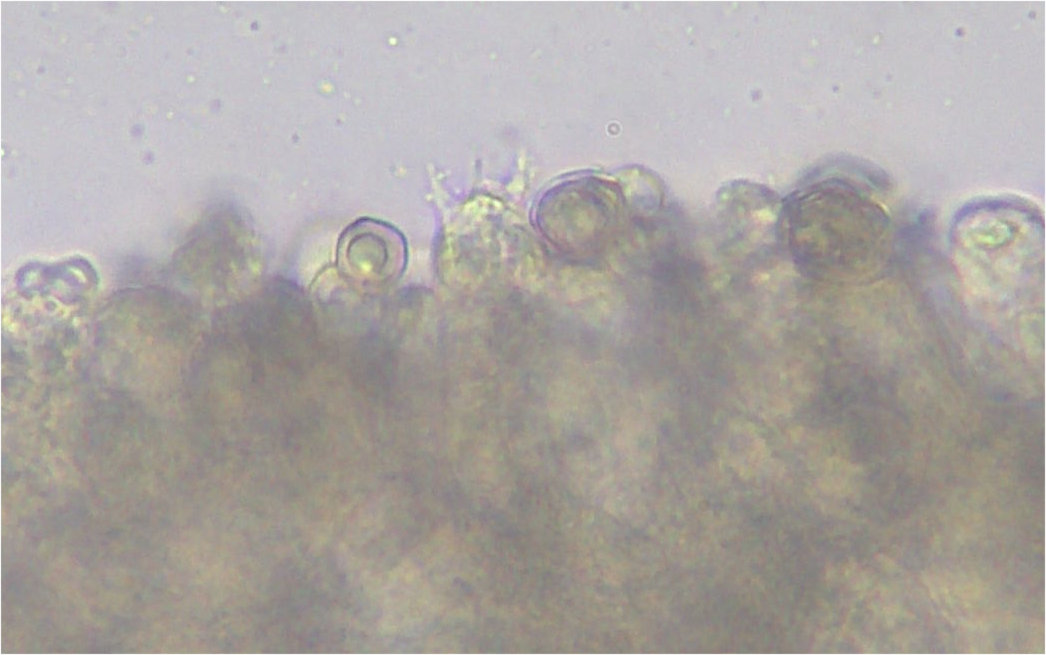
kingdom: Fungi
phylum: Basidiomycota
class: Agaricomycetes
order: Agaricales
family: Entolomataceae
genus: Entoloma
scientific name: Entoloma viiduense
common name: purpurbrun rødblad
